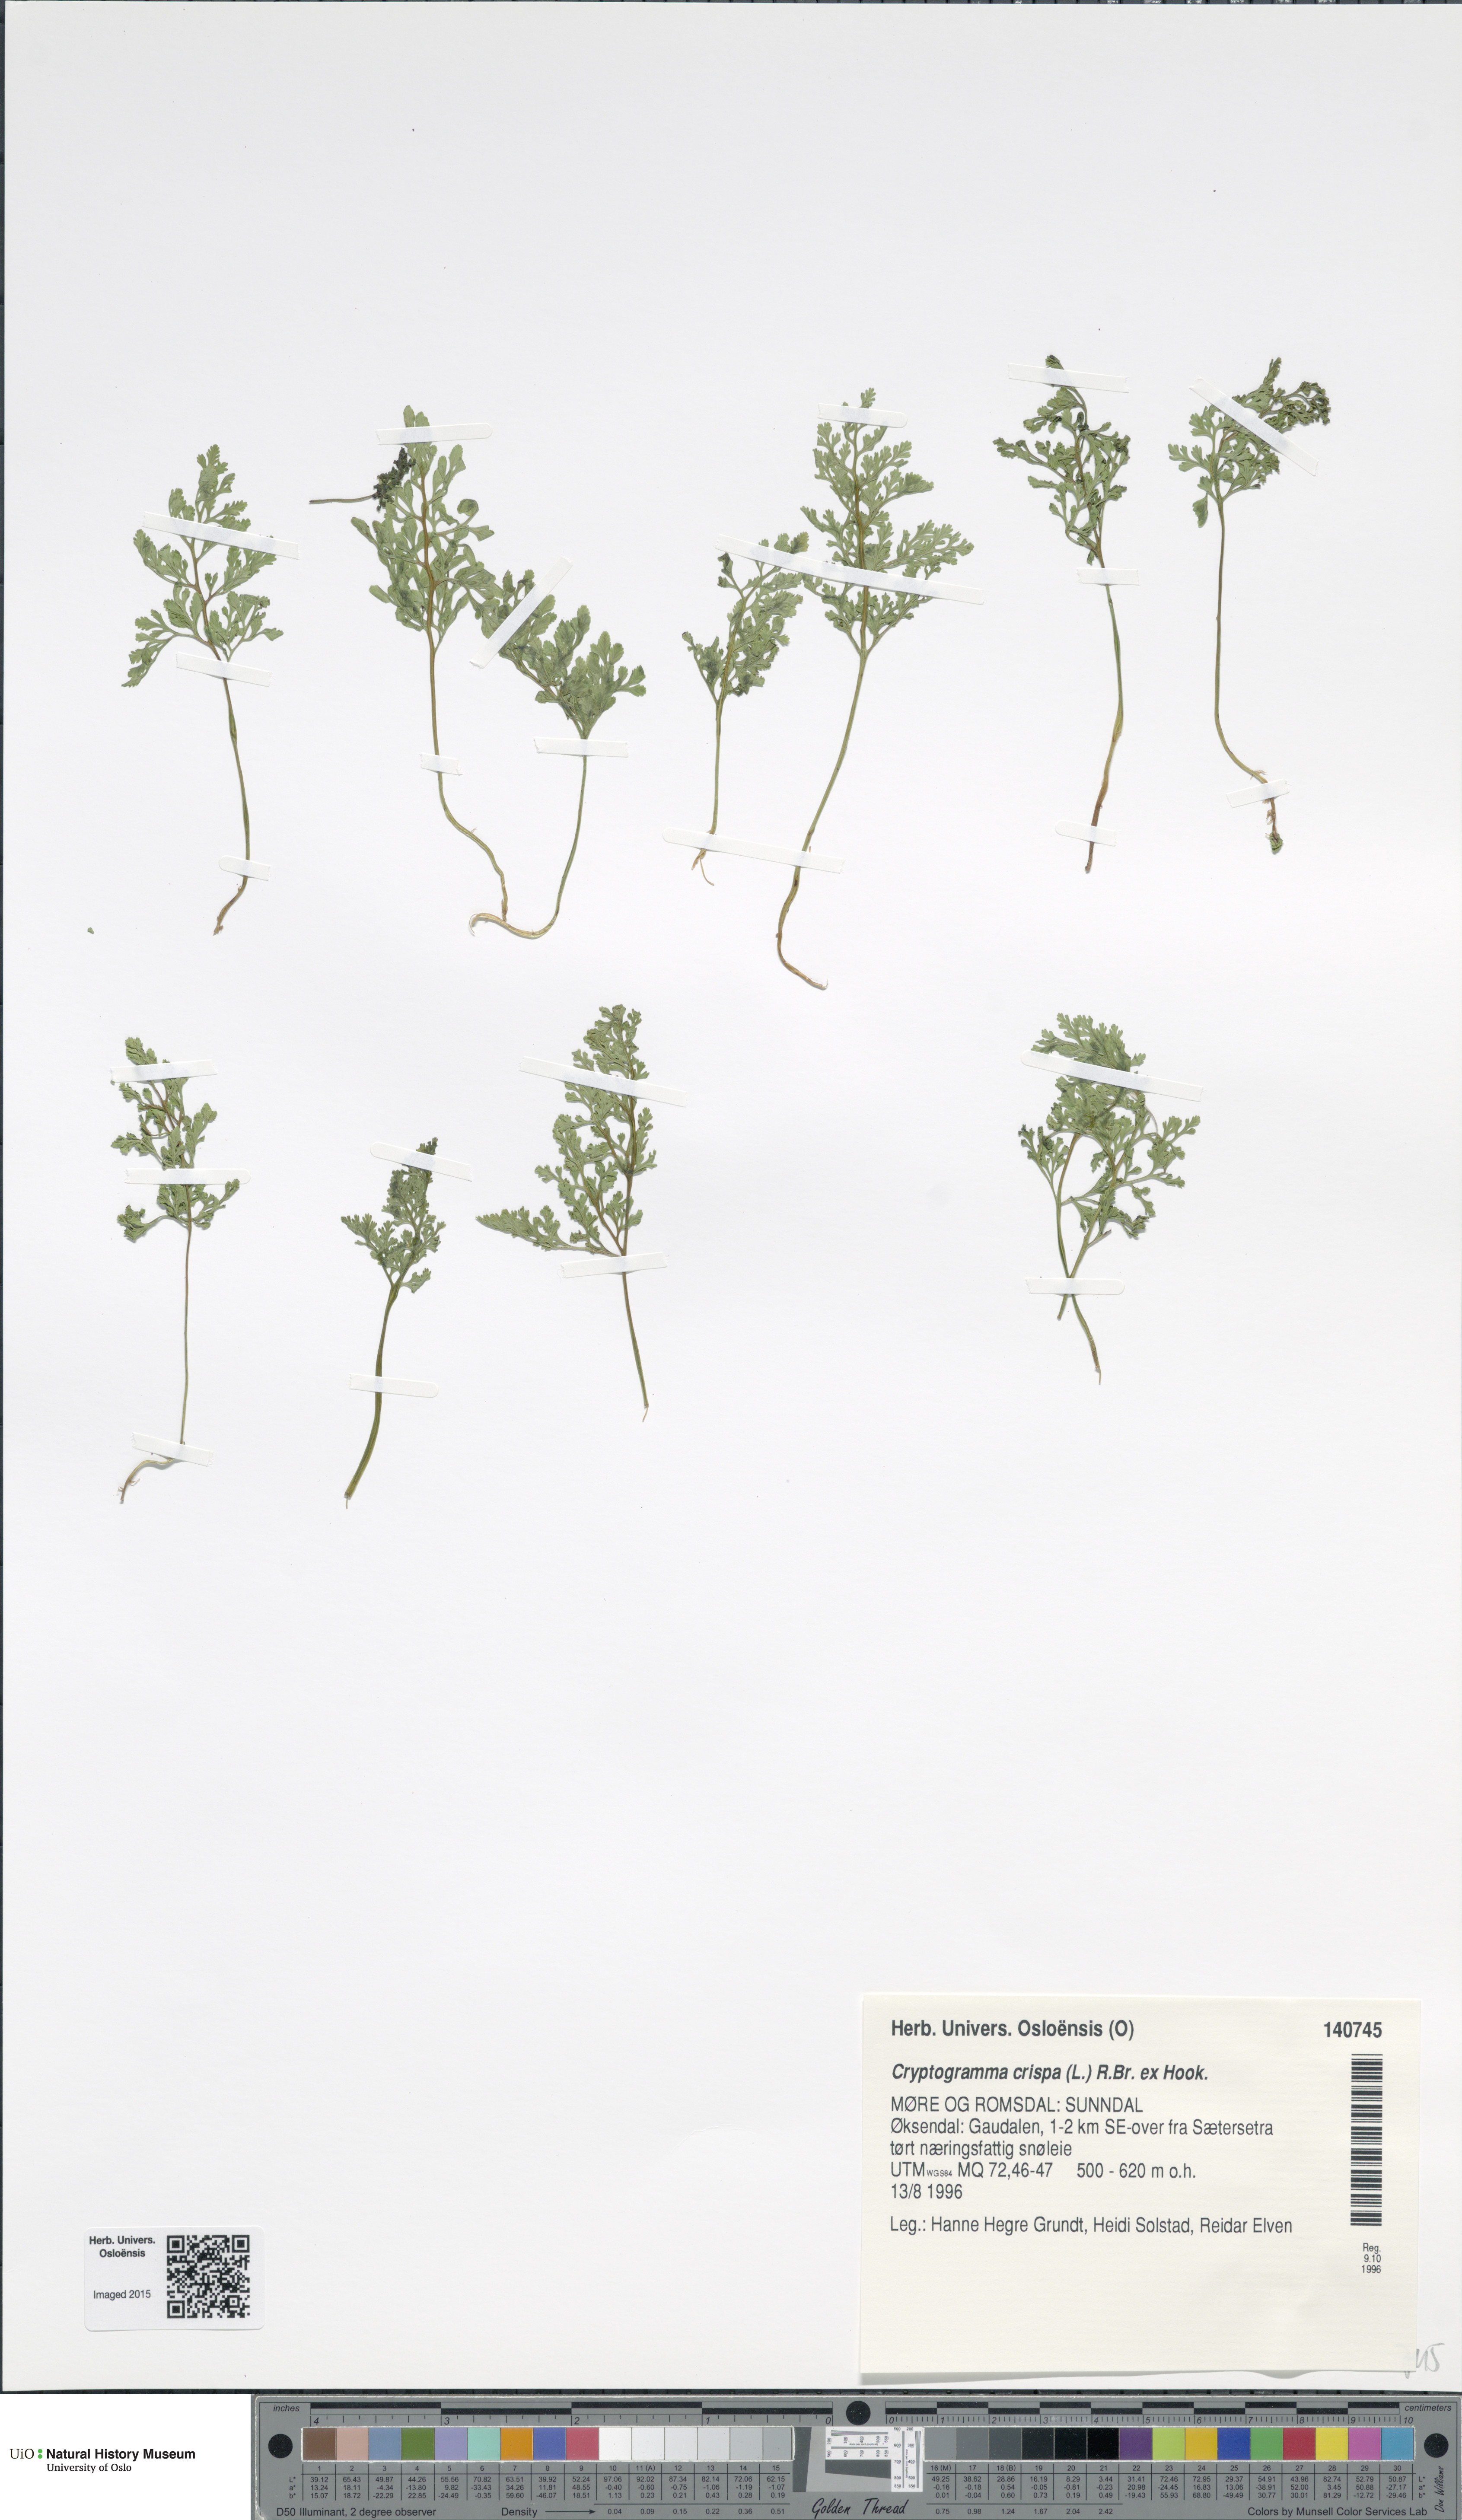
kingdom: Plantae
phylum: Tracheophyta
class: Polypodiopsida
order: Polypodiales
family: Pteridaceae
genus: Cryptogramma
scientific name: Cryptogramma crispa
